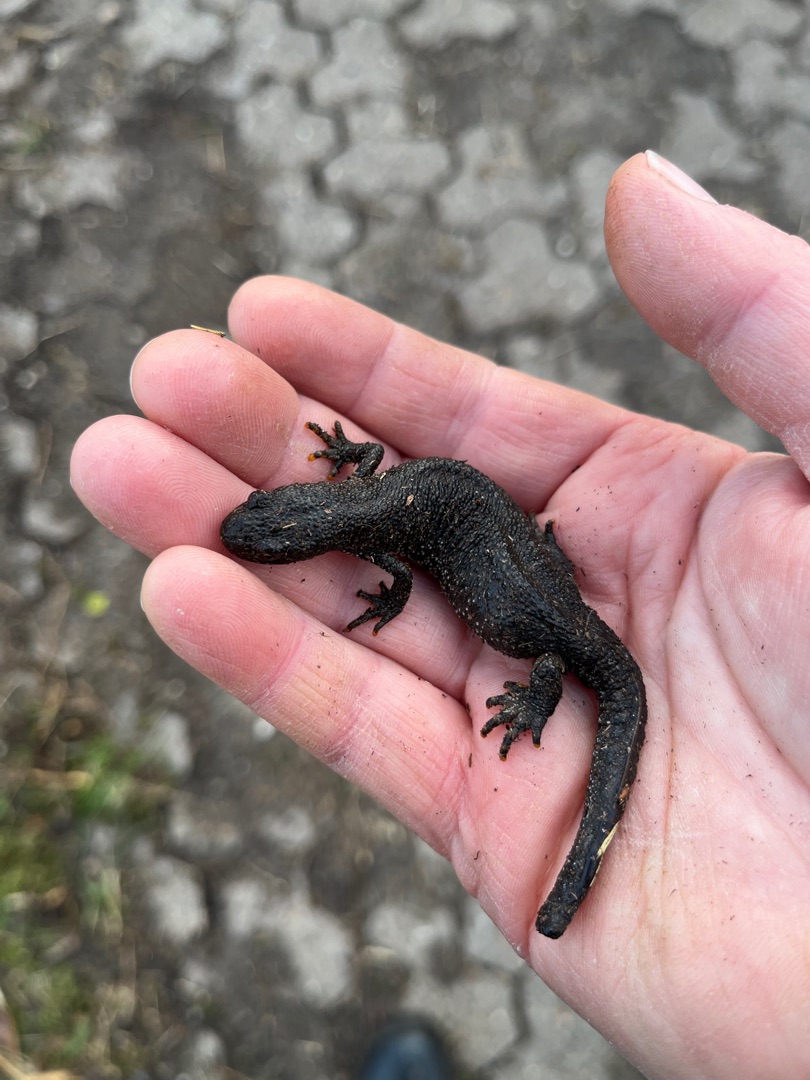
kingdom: Animalia
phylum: Chordata
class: Amphibia
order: Caudata
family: Salamandridae
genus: Triturus
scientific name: Triturus cristatus
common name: Stor vandsalamander
